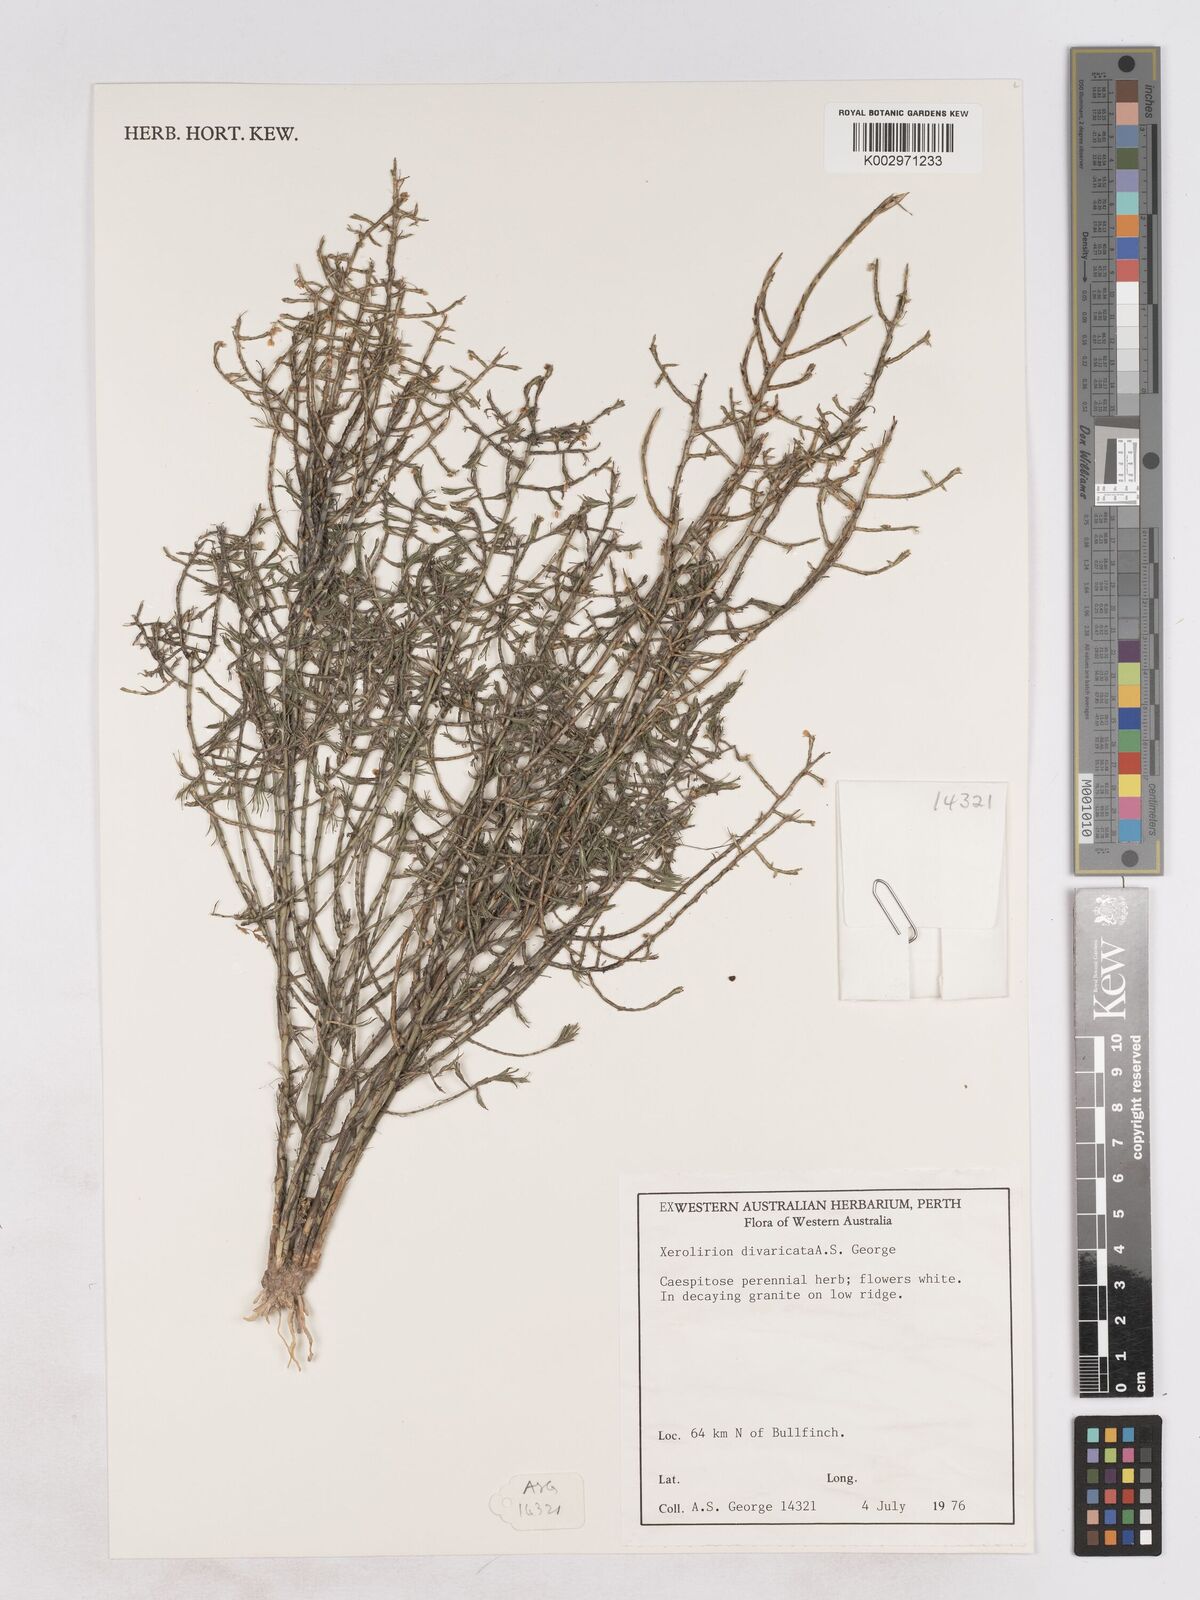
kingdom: Plantae
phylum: Tracheophyta
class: Liliopsida
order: Asparagales
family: Asparagaceae
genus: Xerolirion
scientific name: Xerolirion divaricata
